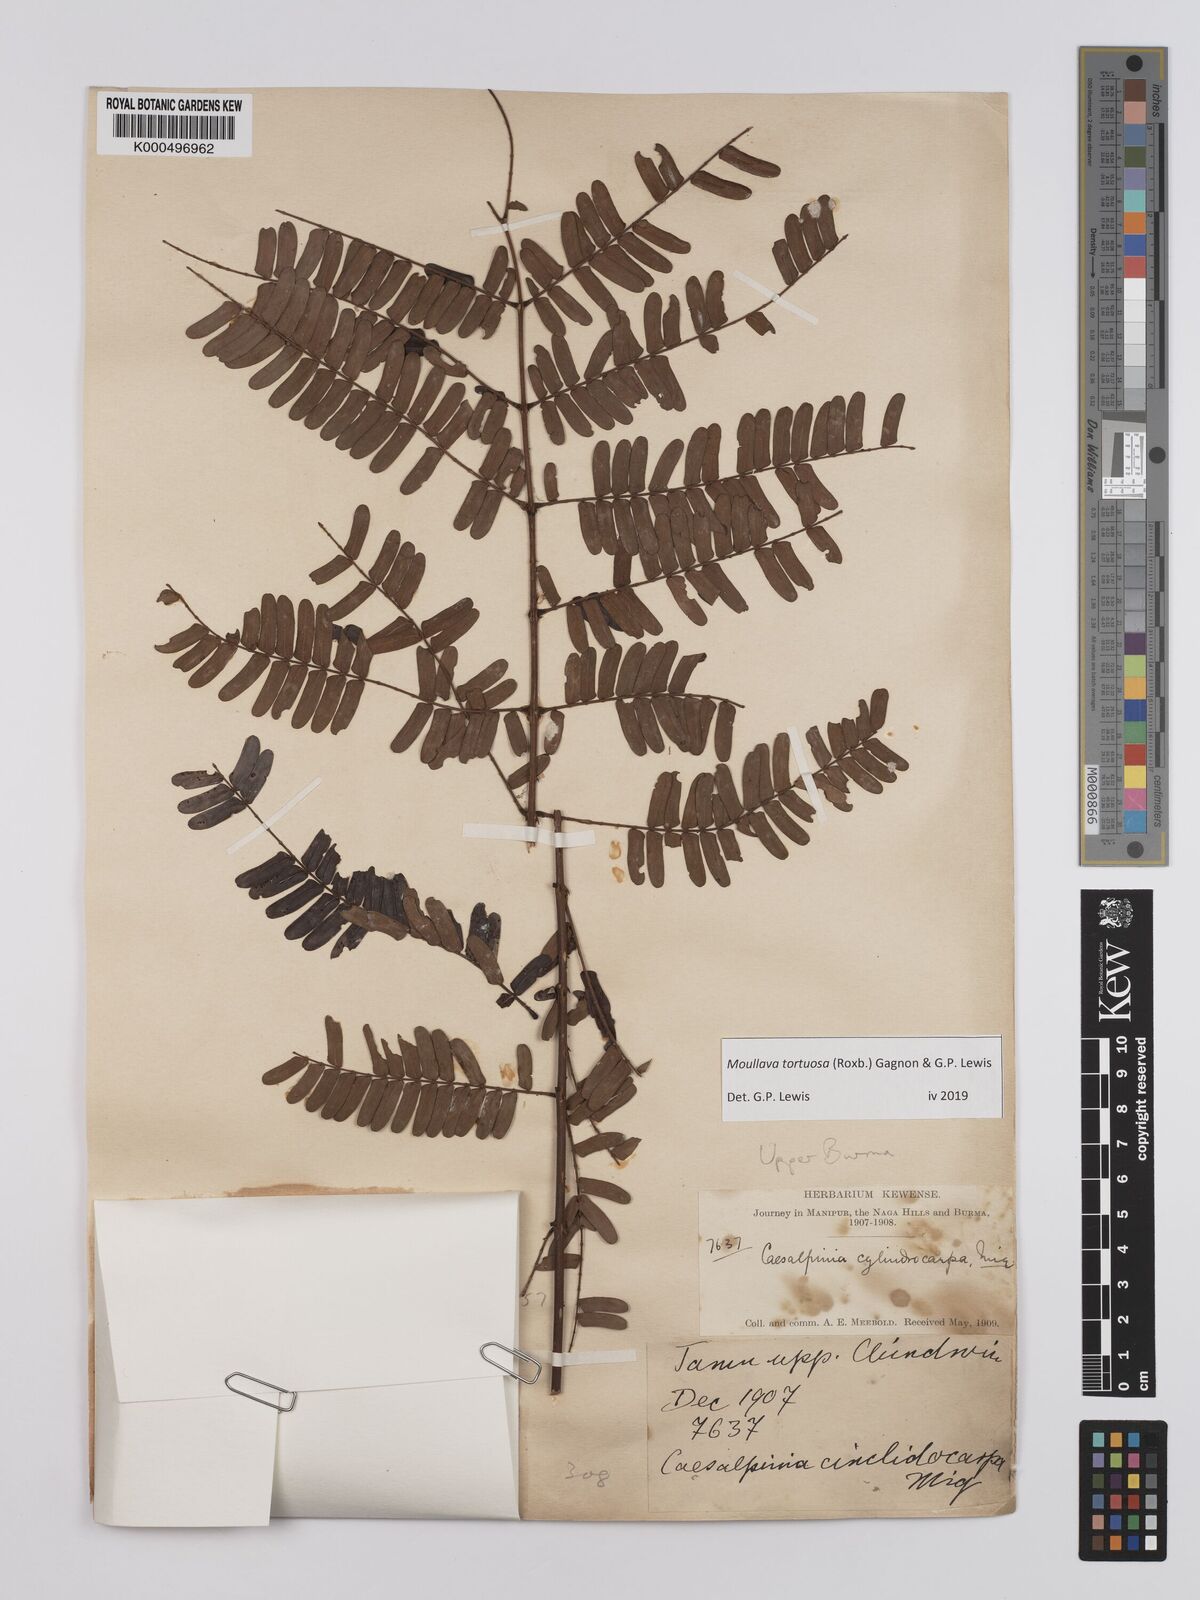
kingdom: Plantae
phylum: Tracheophyta
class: Magnoliopsida
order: Fabales
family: Fabaceae
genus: Moullava
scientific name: Moullava tortuosa
